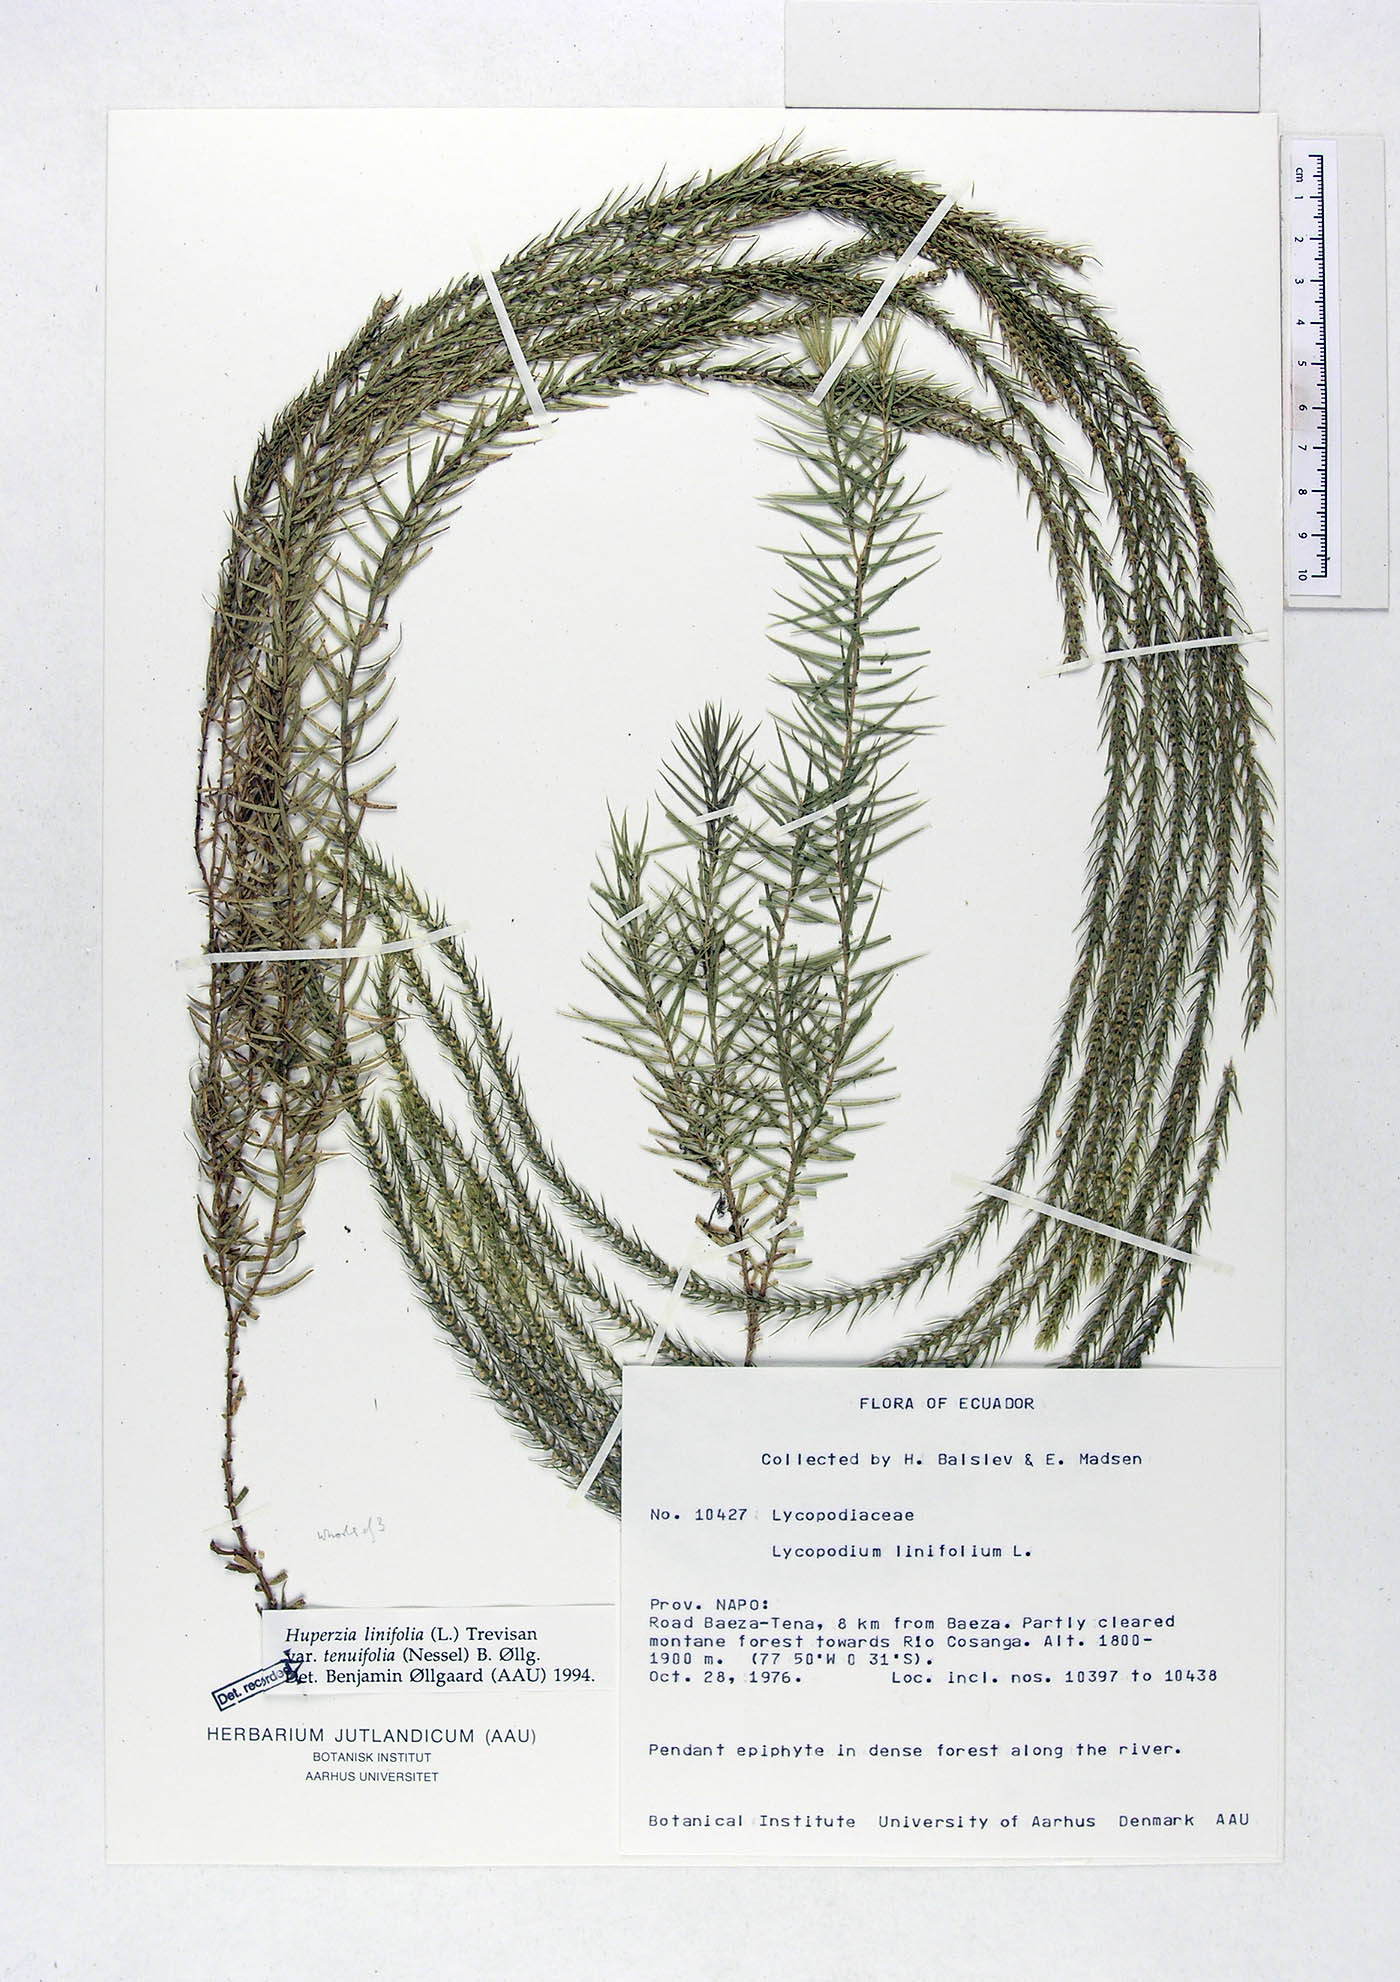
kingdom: Plantae
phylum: Tracheophyta
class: Lycopodiopsida
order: Lycopodiales
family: Lycopodiaceae
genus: Phlegmariurus
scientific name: Phlegmariurus linifolius
